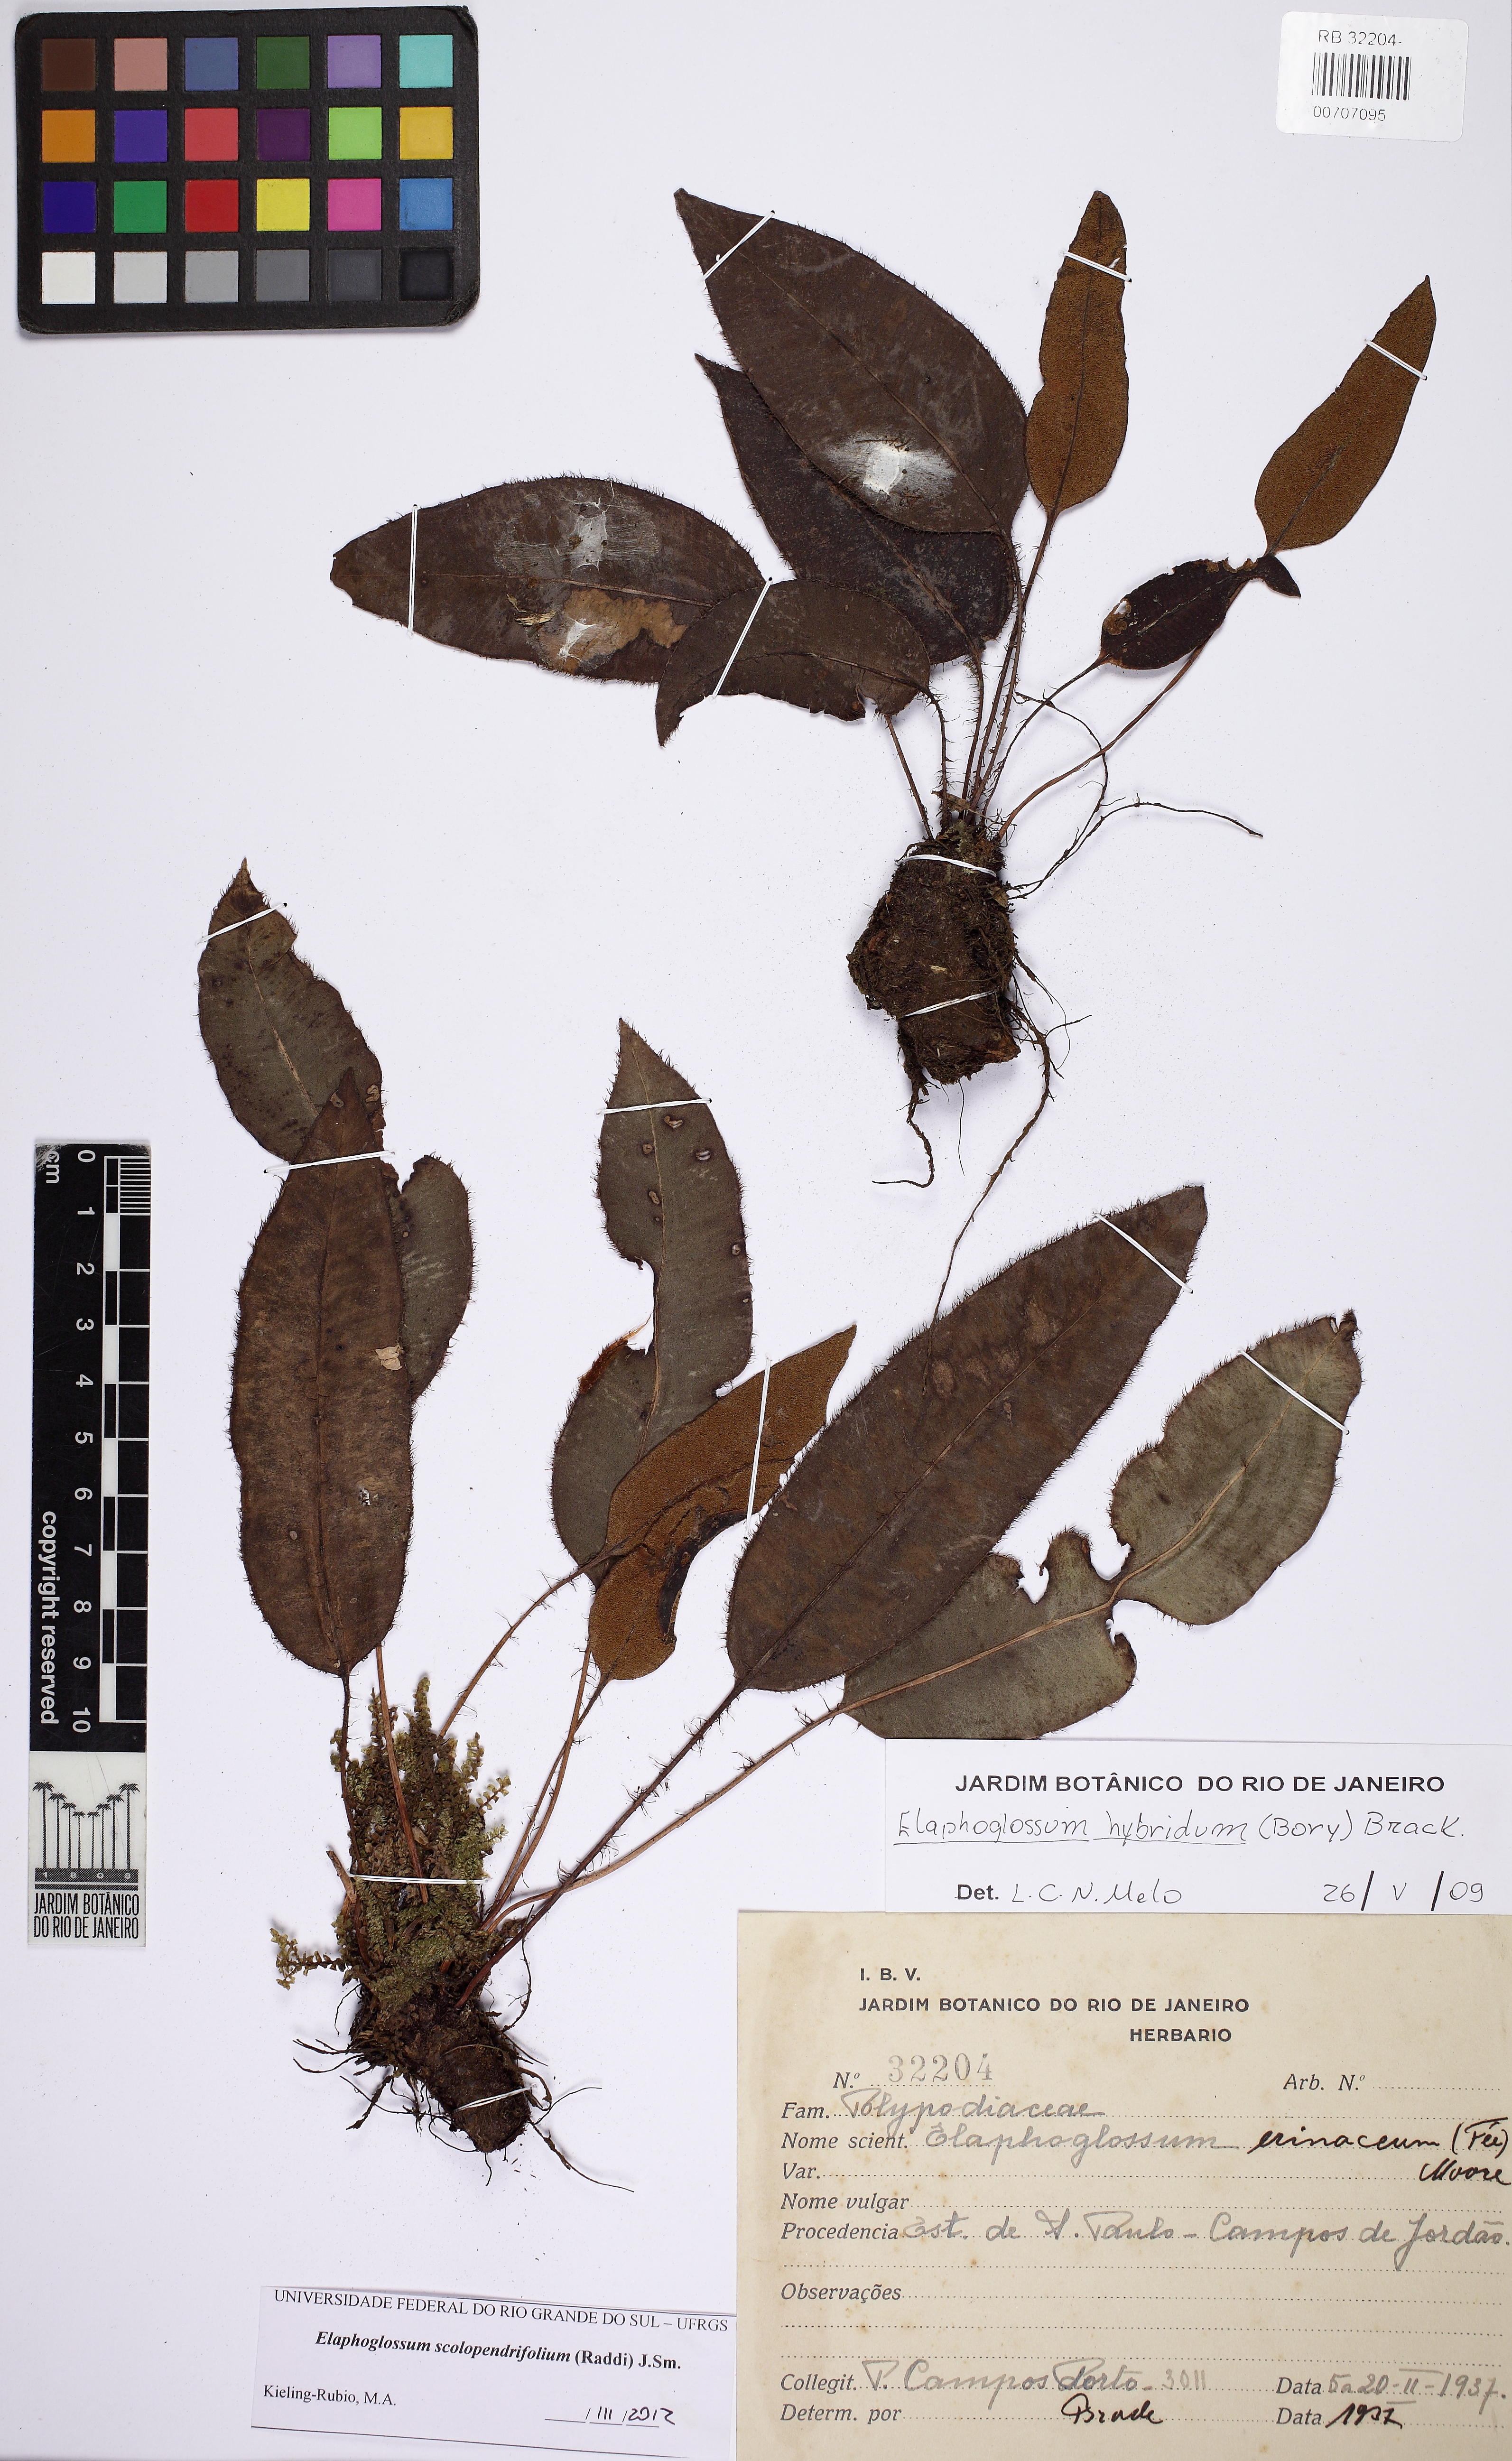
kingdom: Plantae
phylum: Tracheophyta
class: Polypodiopsida
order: Polypodiales
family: Dryopteridaceae
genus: Elaphoglossum
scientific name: Elaphoglossum scolopendrifolium
